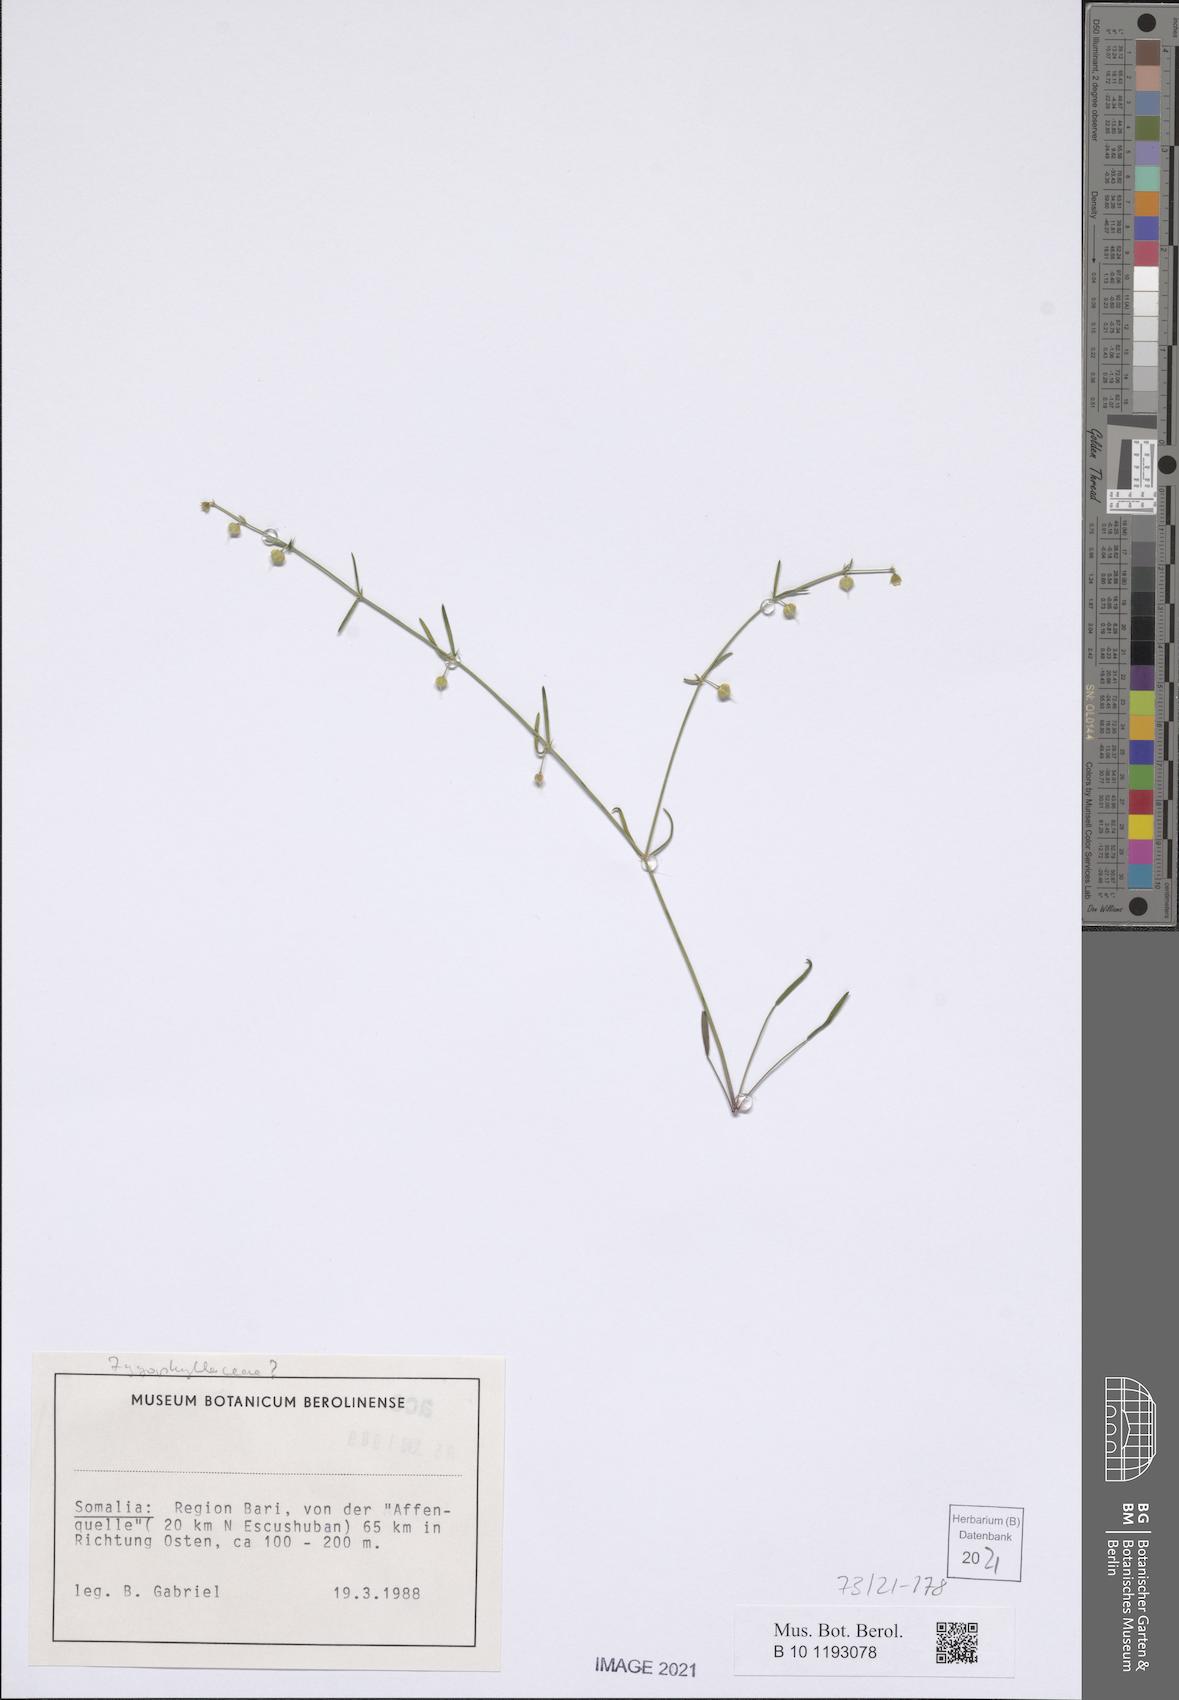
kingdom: Plantae
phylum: Tracheophyta
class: Magnoliopsida
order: Zygophyllales
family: Zygophyllaceae
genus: Fagonia
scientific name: Fagonia socotrana
